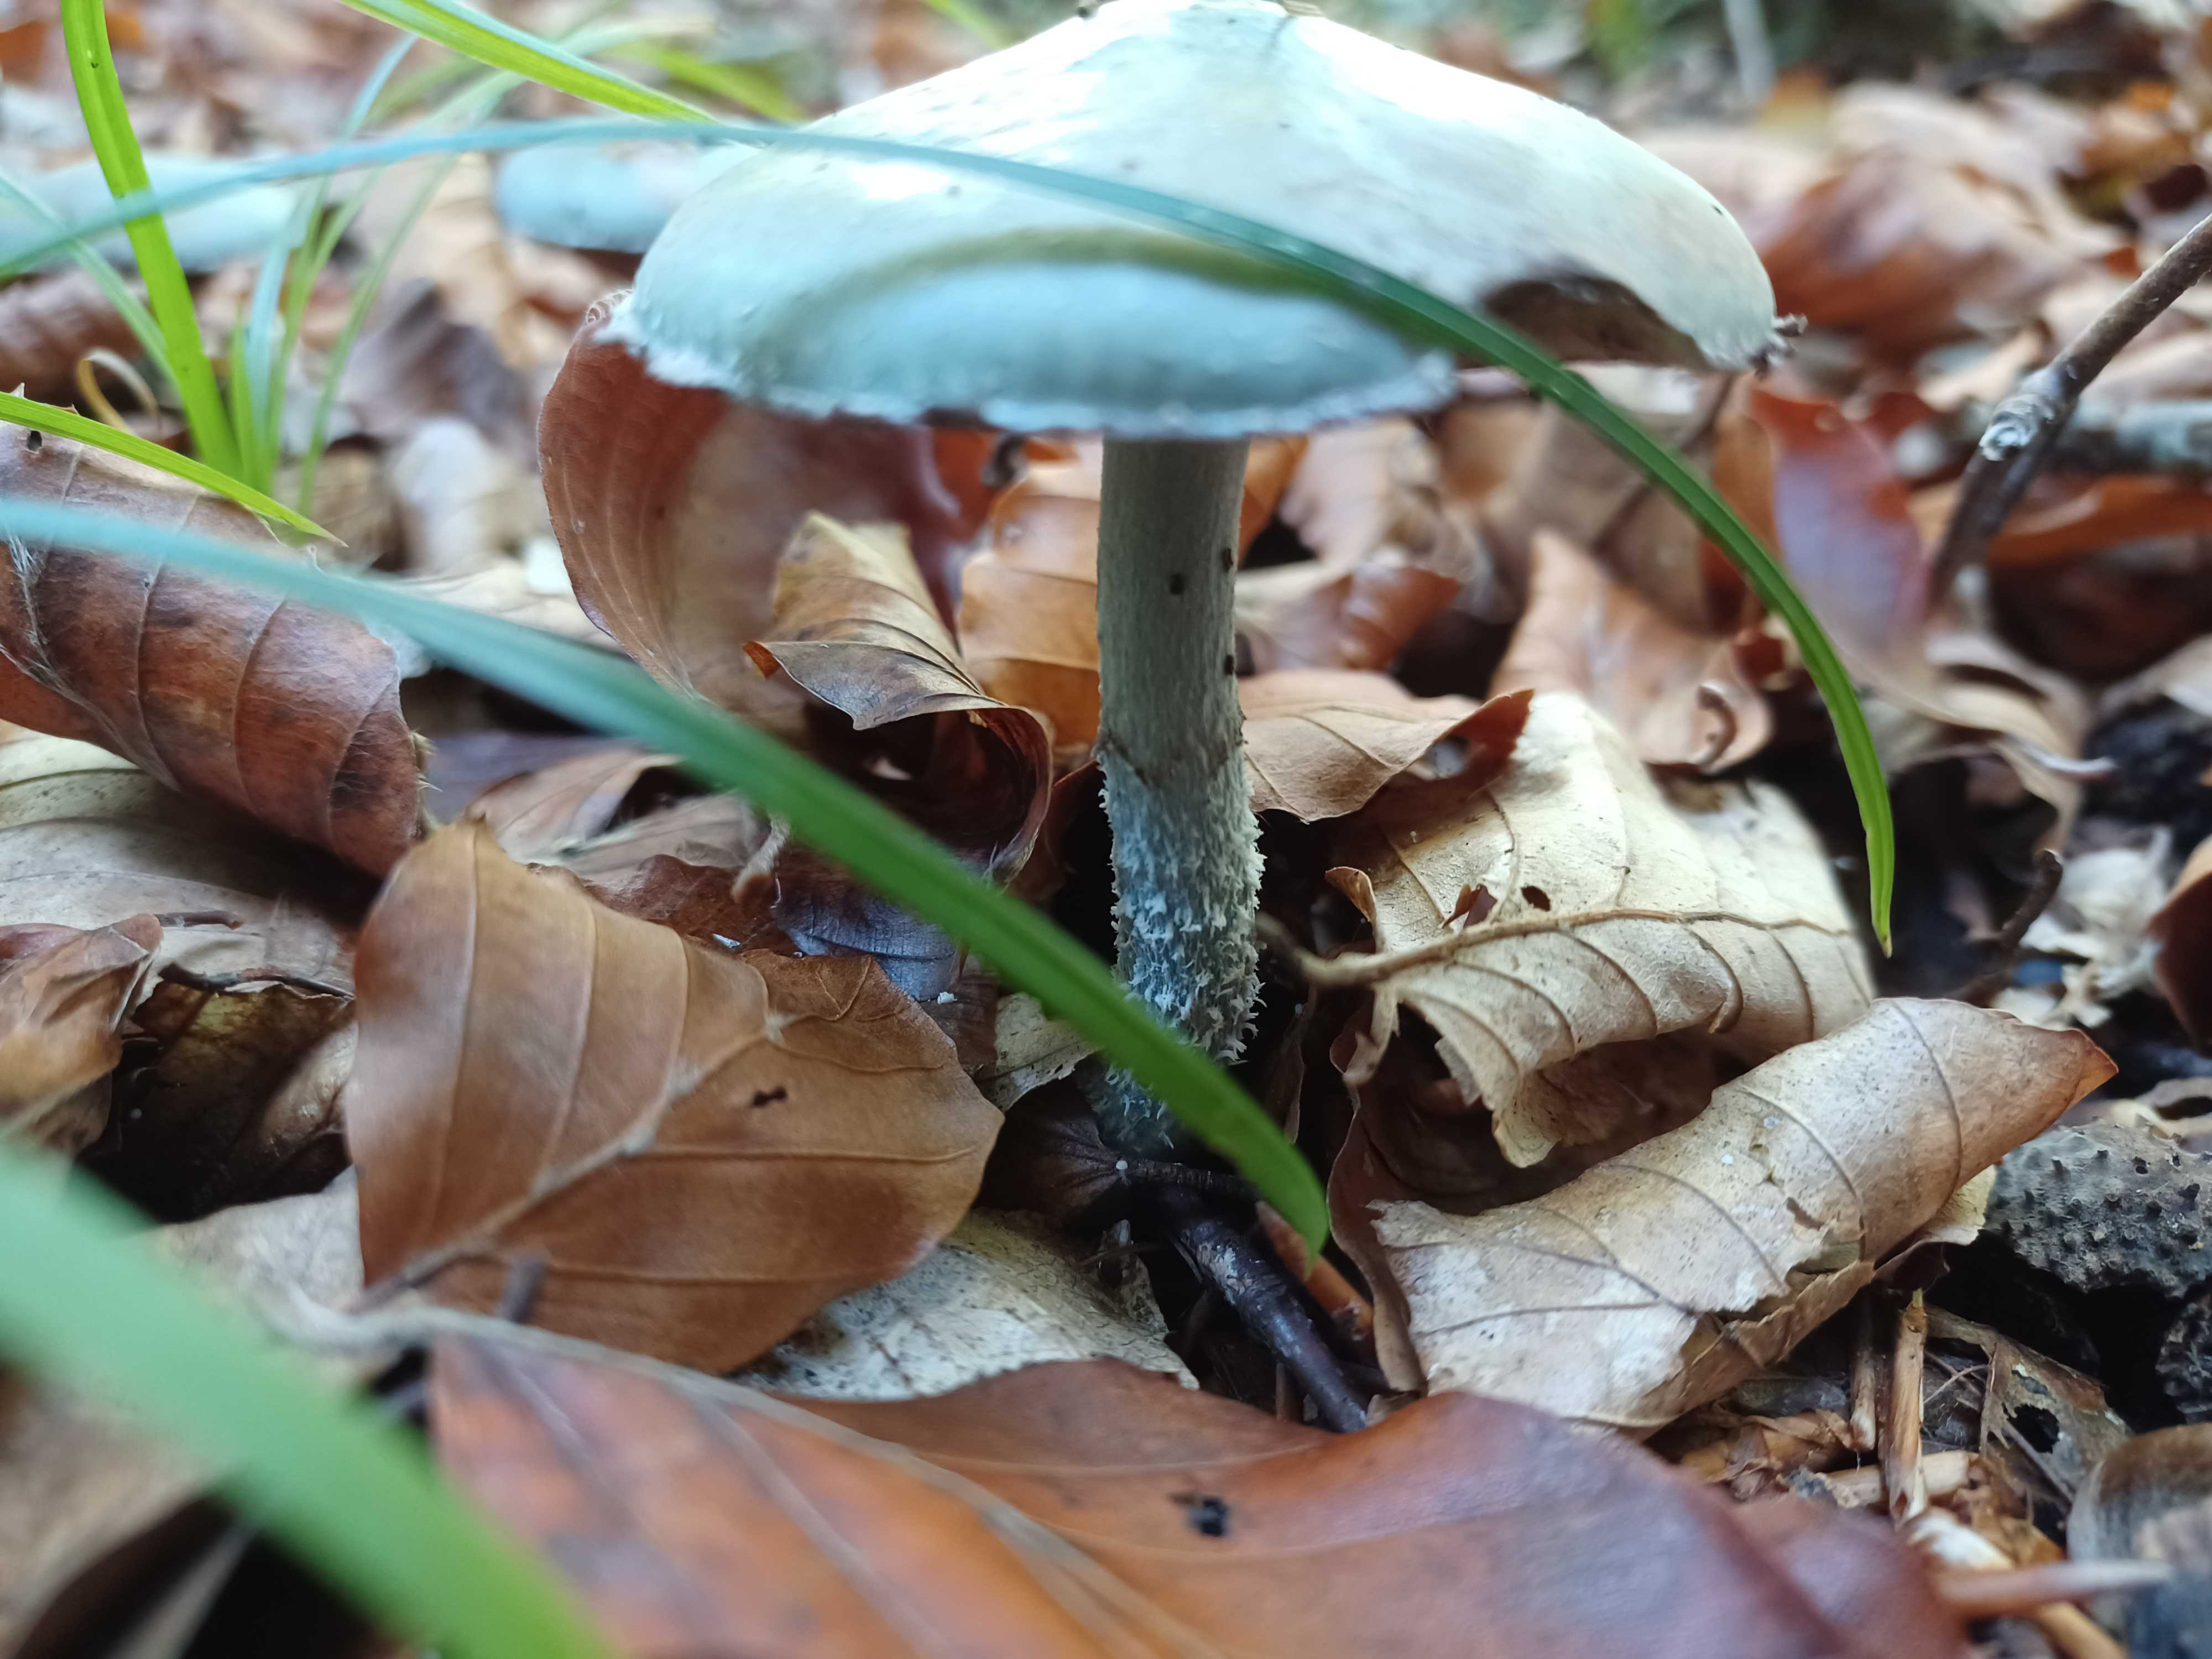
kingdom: Fungi
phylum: Basidiomycota
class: Agaricomycetes
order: Agaricales
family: Strophariaceae
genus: Stropharia
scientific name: Stropharia cyanea
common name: blågrøn bredblad
